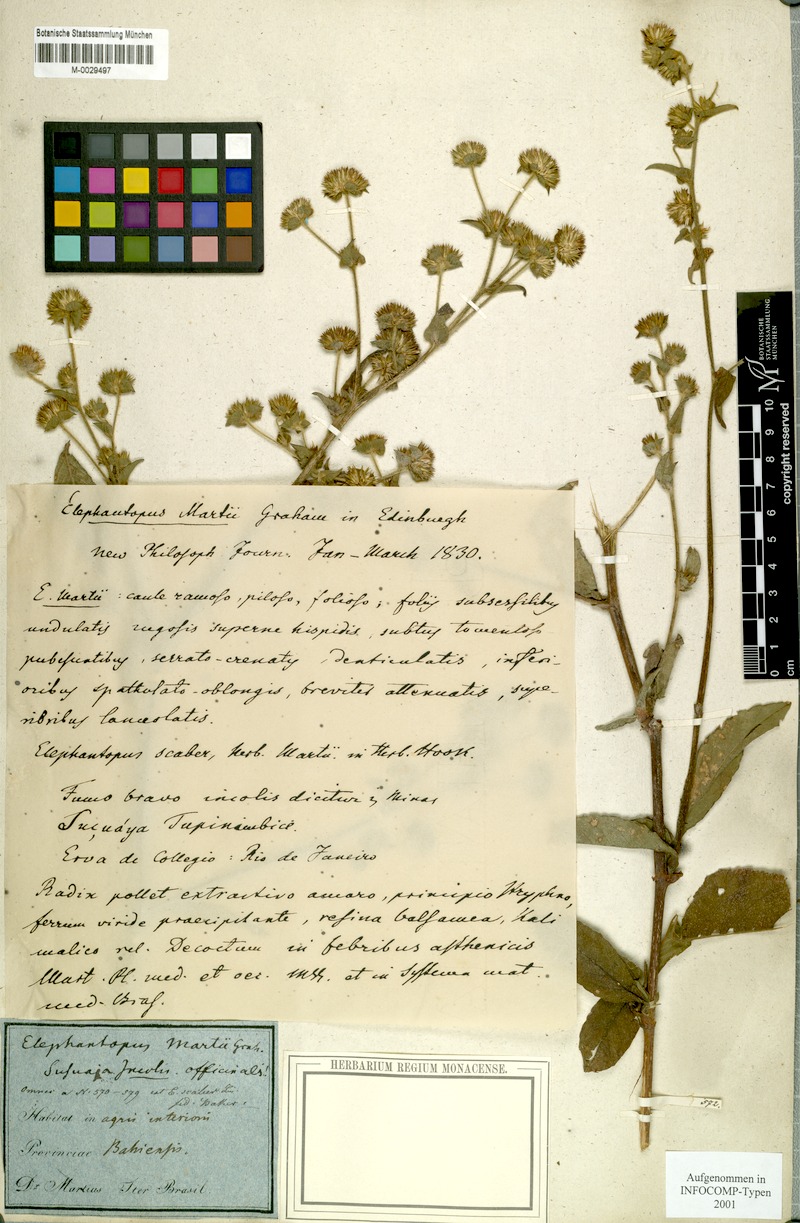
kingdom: Plantae
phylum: Tracheophyta
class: Magnoliopsida
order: Asterales
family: Asteraceae
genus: Elephantopus
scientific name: Elephantopus mollis
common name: Soft elephantsfoot
